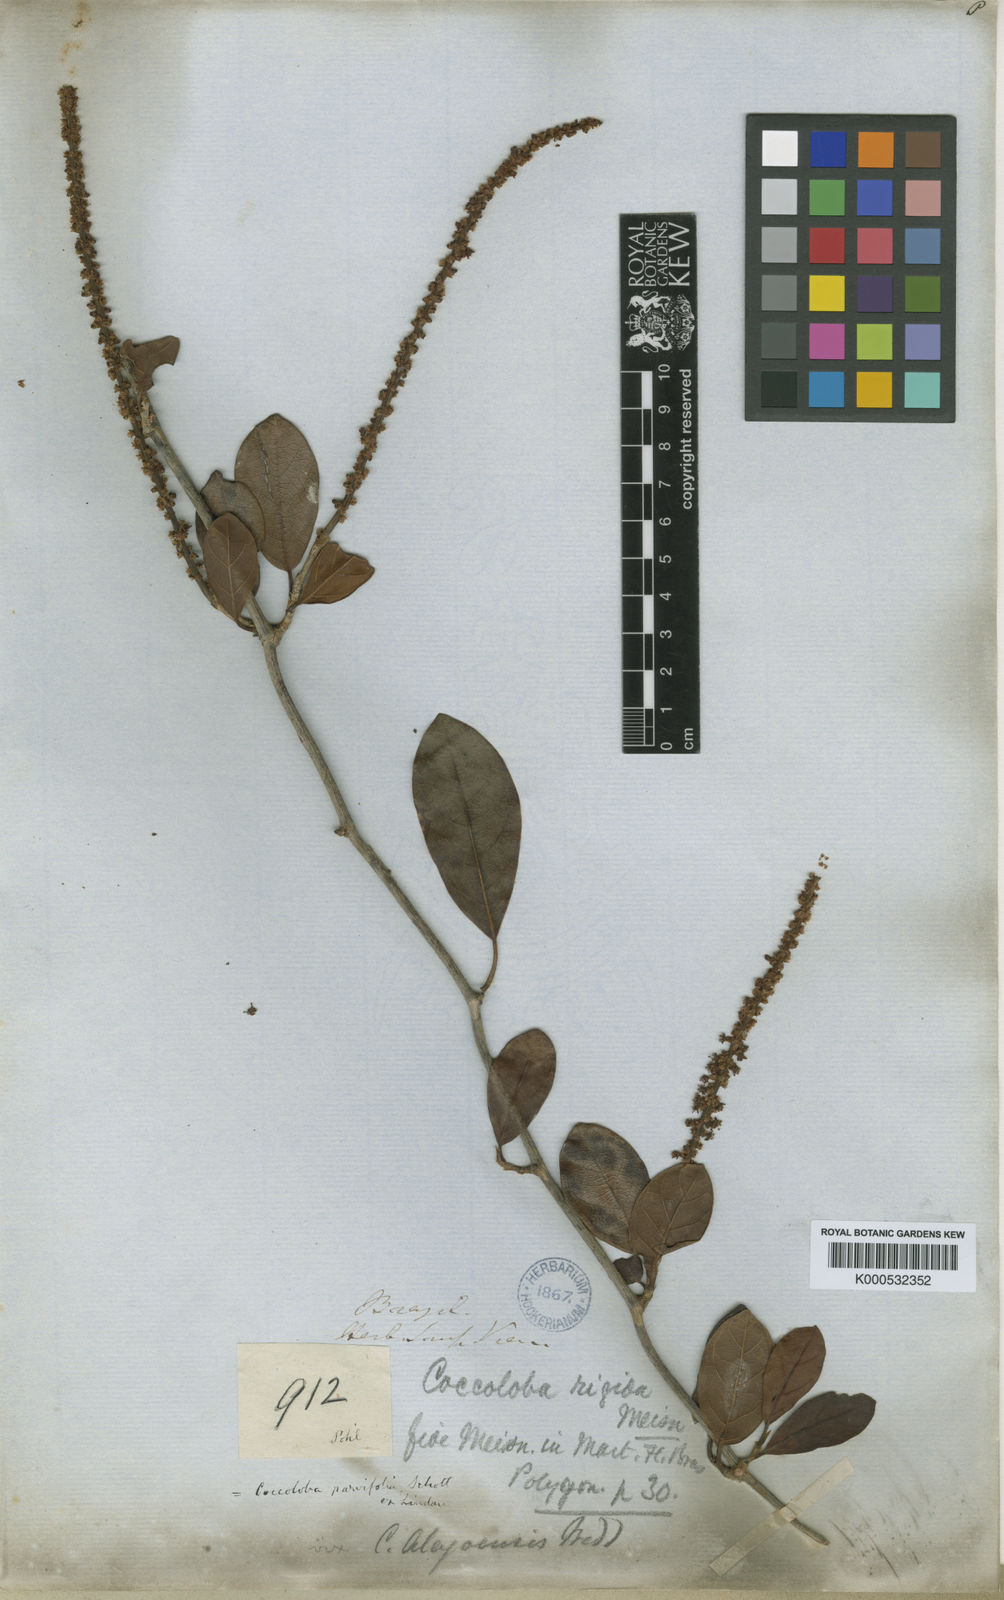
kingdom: Plantae
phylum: Tracheophyta
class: Magnoliopsida
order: Caryophyllales
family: Polygonaceae
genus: Coccoloba
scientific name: Coccoloba rigida
